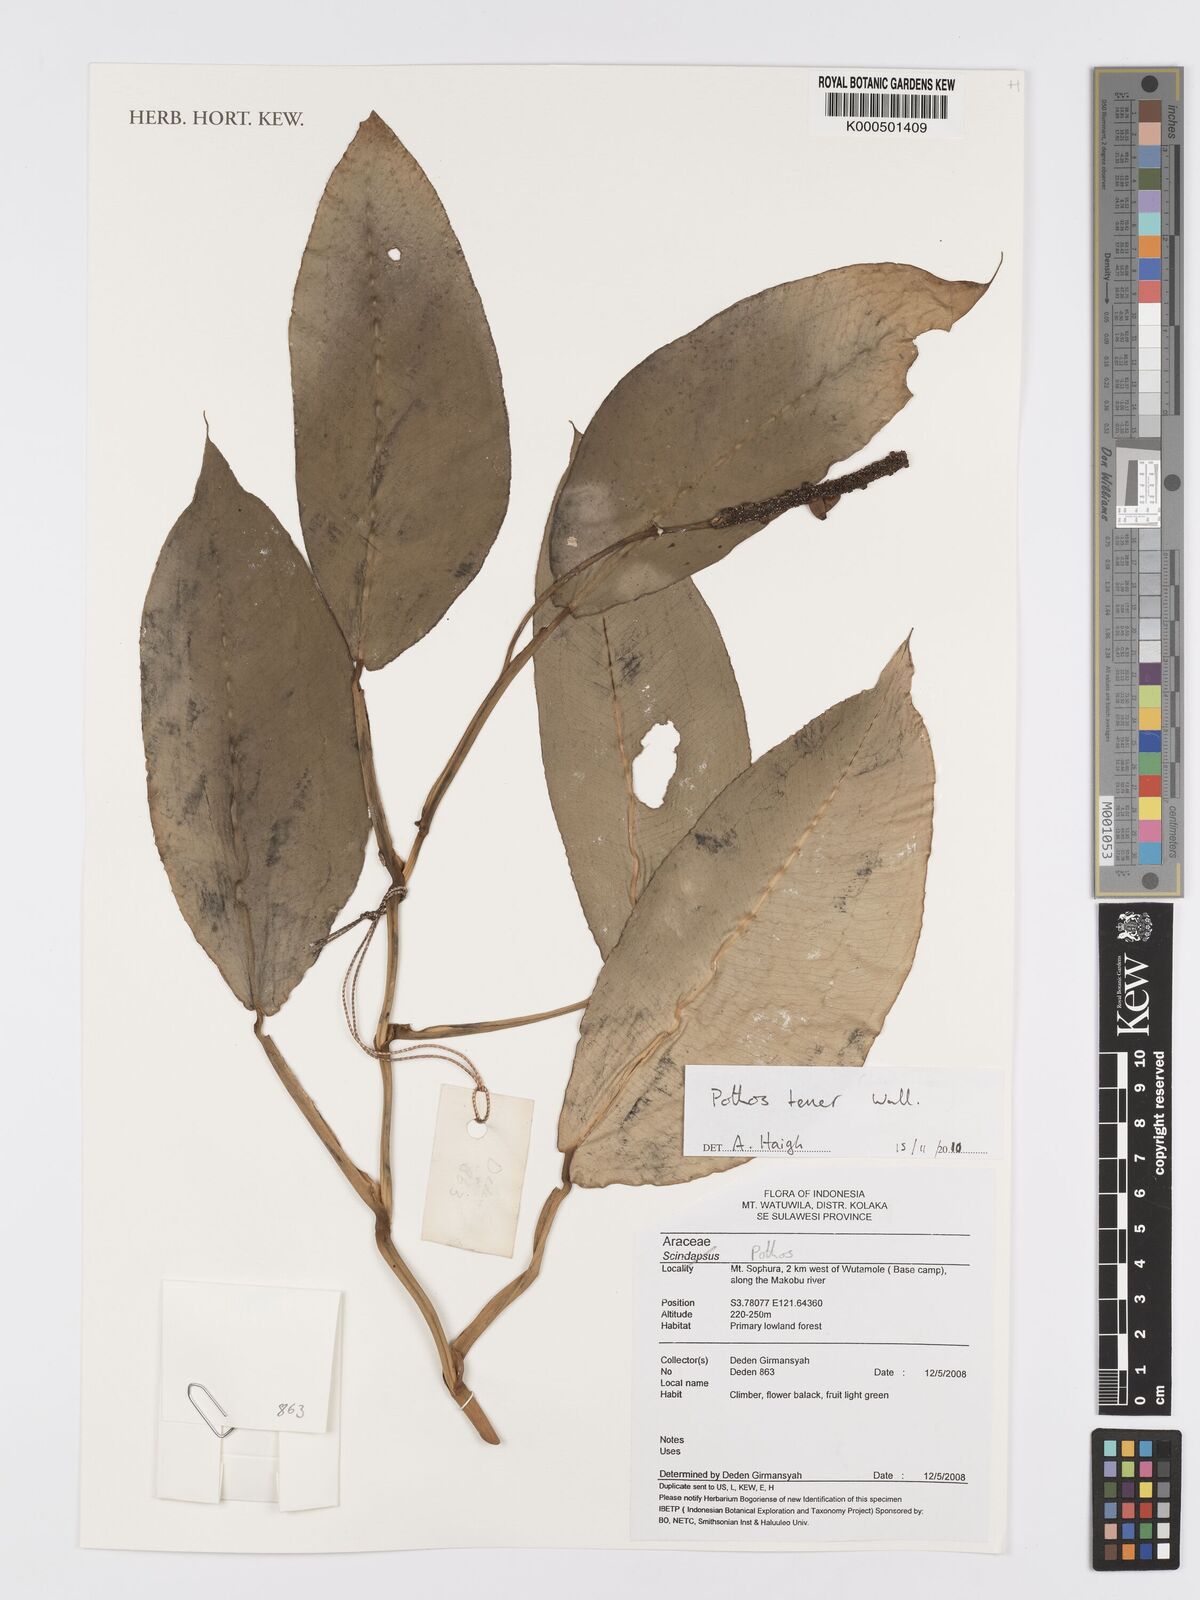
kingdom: Plantae
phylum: Tracheophyta
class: Liliopsida
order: Alismatales
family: Araceae
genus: Pothos
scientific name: Pothos
